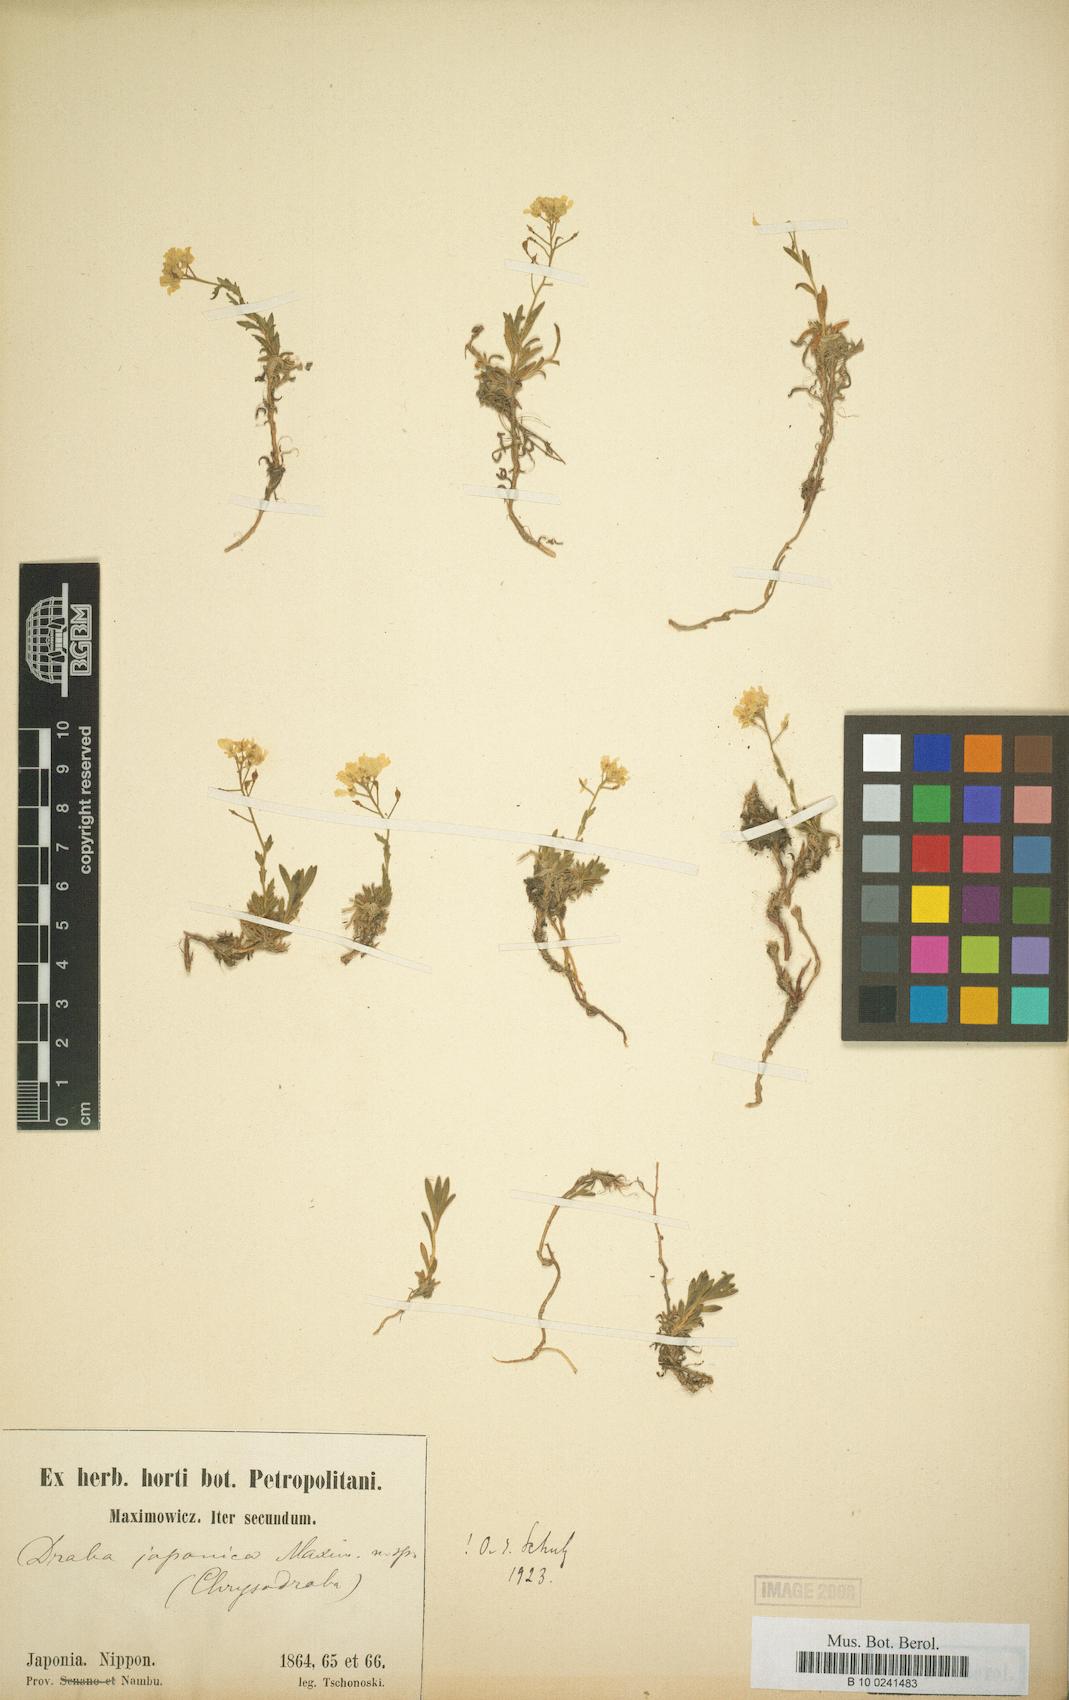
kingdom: Plantae
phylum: Tracheophyta
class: Magnoliopsida
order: Brassicales
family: Brassicaceae
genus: Draba
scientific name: Draba japonica
